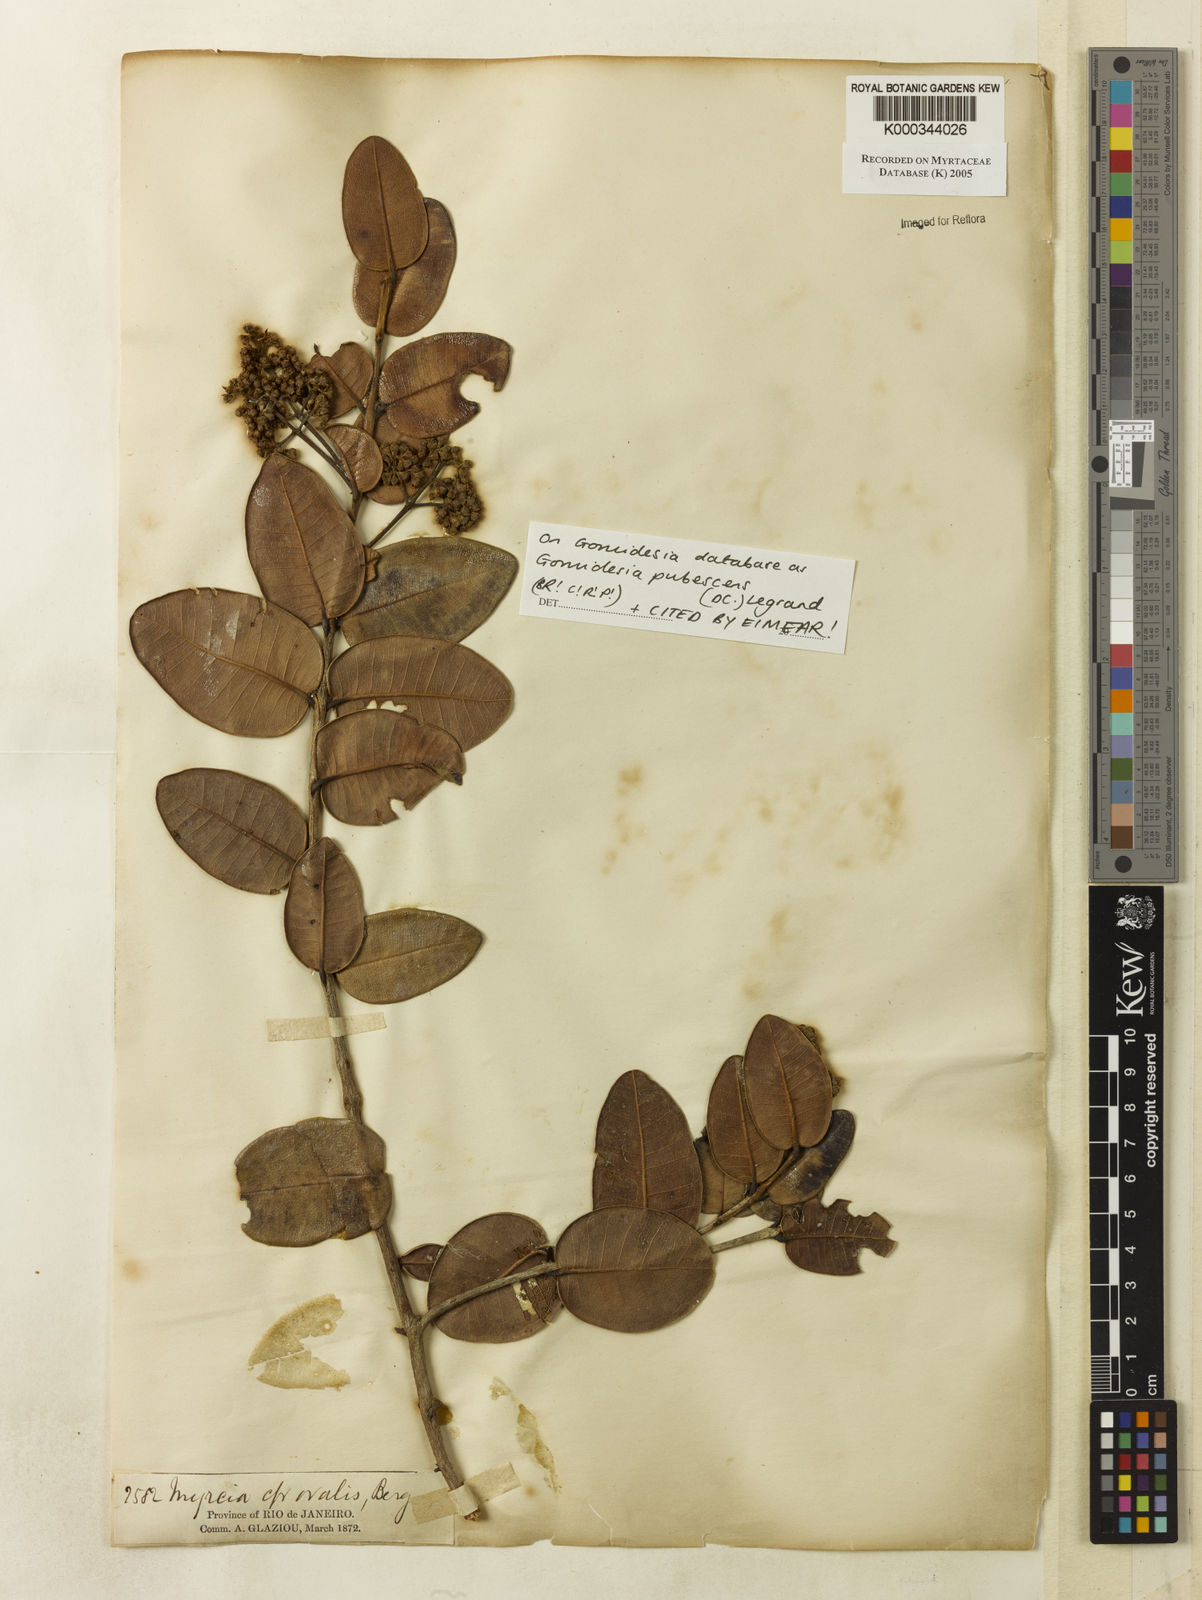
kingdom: Plantae
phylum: Tracheophyta
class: Magnoliopsida
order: Myrtales
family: Myrtaceae
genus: Myrcia
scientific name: Myrcia pubescens
